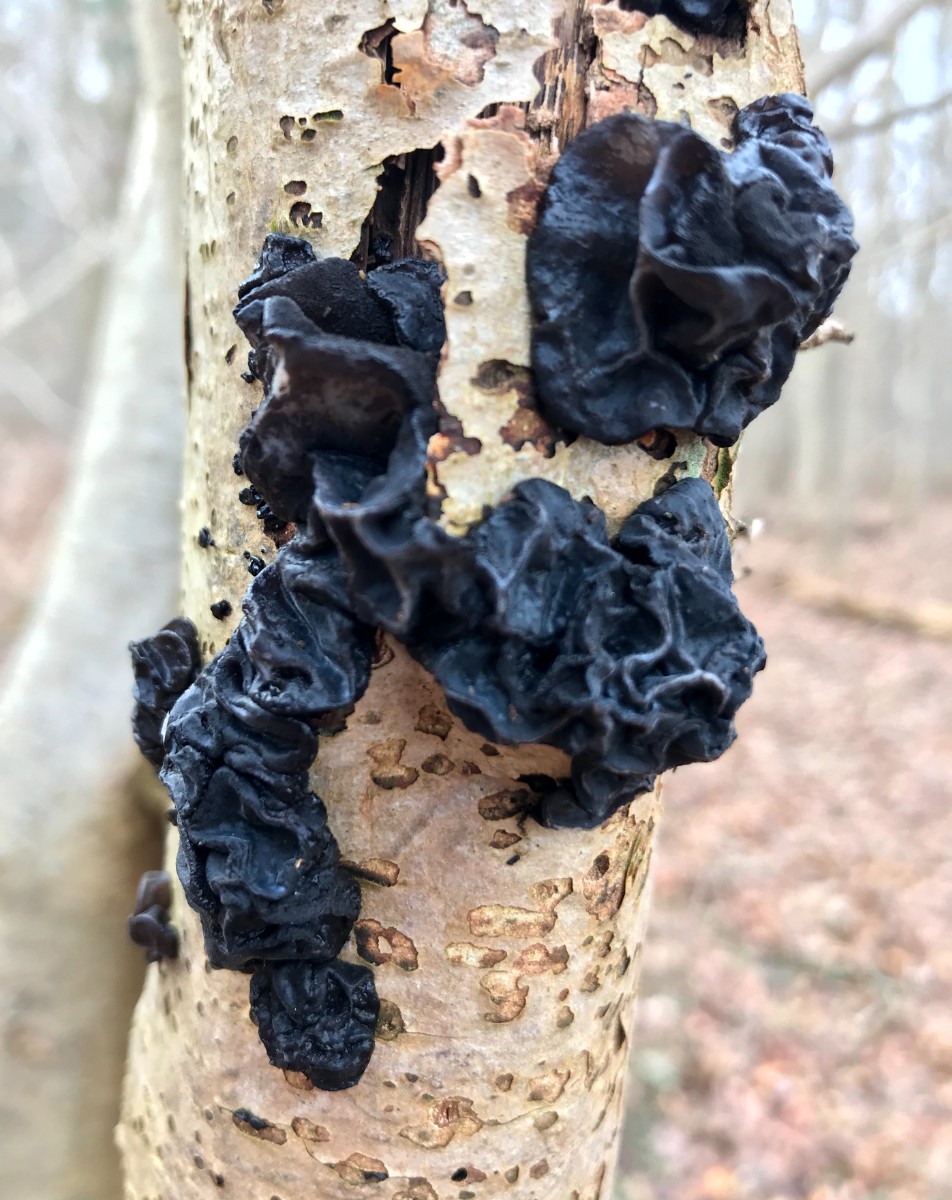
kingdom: Fungi
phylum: Basidiomycota
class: Agaricomycetes
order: Auriculariales
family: Auriculariaceae
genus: Exidia
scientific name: Exidia glandulosa
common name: ege-bævretop
